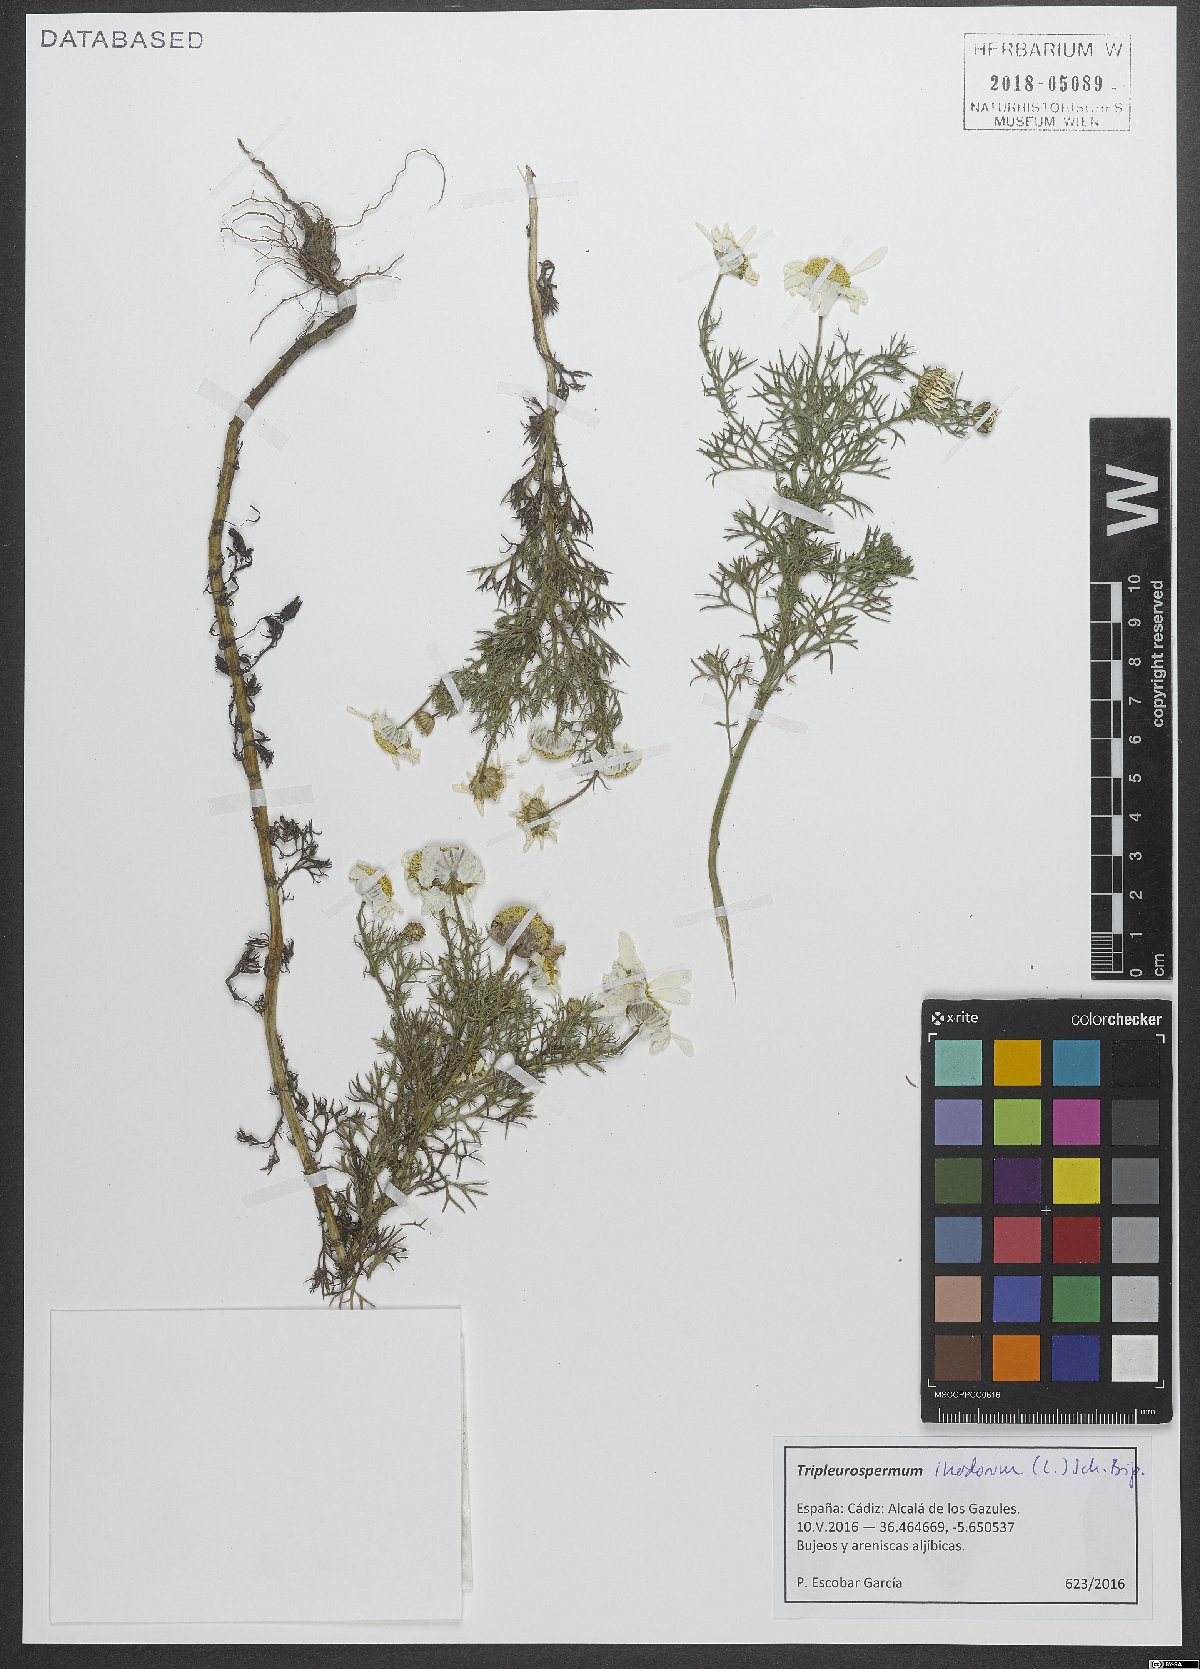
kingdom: Plantae
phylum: Tracheophyta
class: Magnoliopsida
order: Asterales
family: Asteraceae
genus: Tripleurospermum
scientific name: Tripleurospermum inodorum
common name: Scentless mayweed
